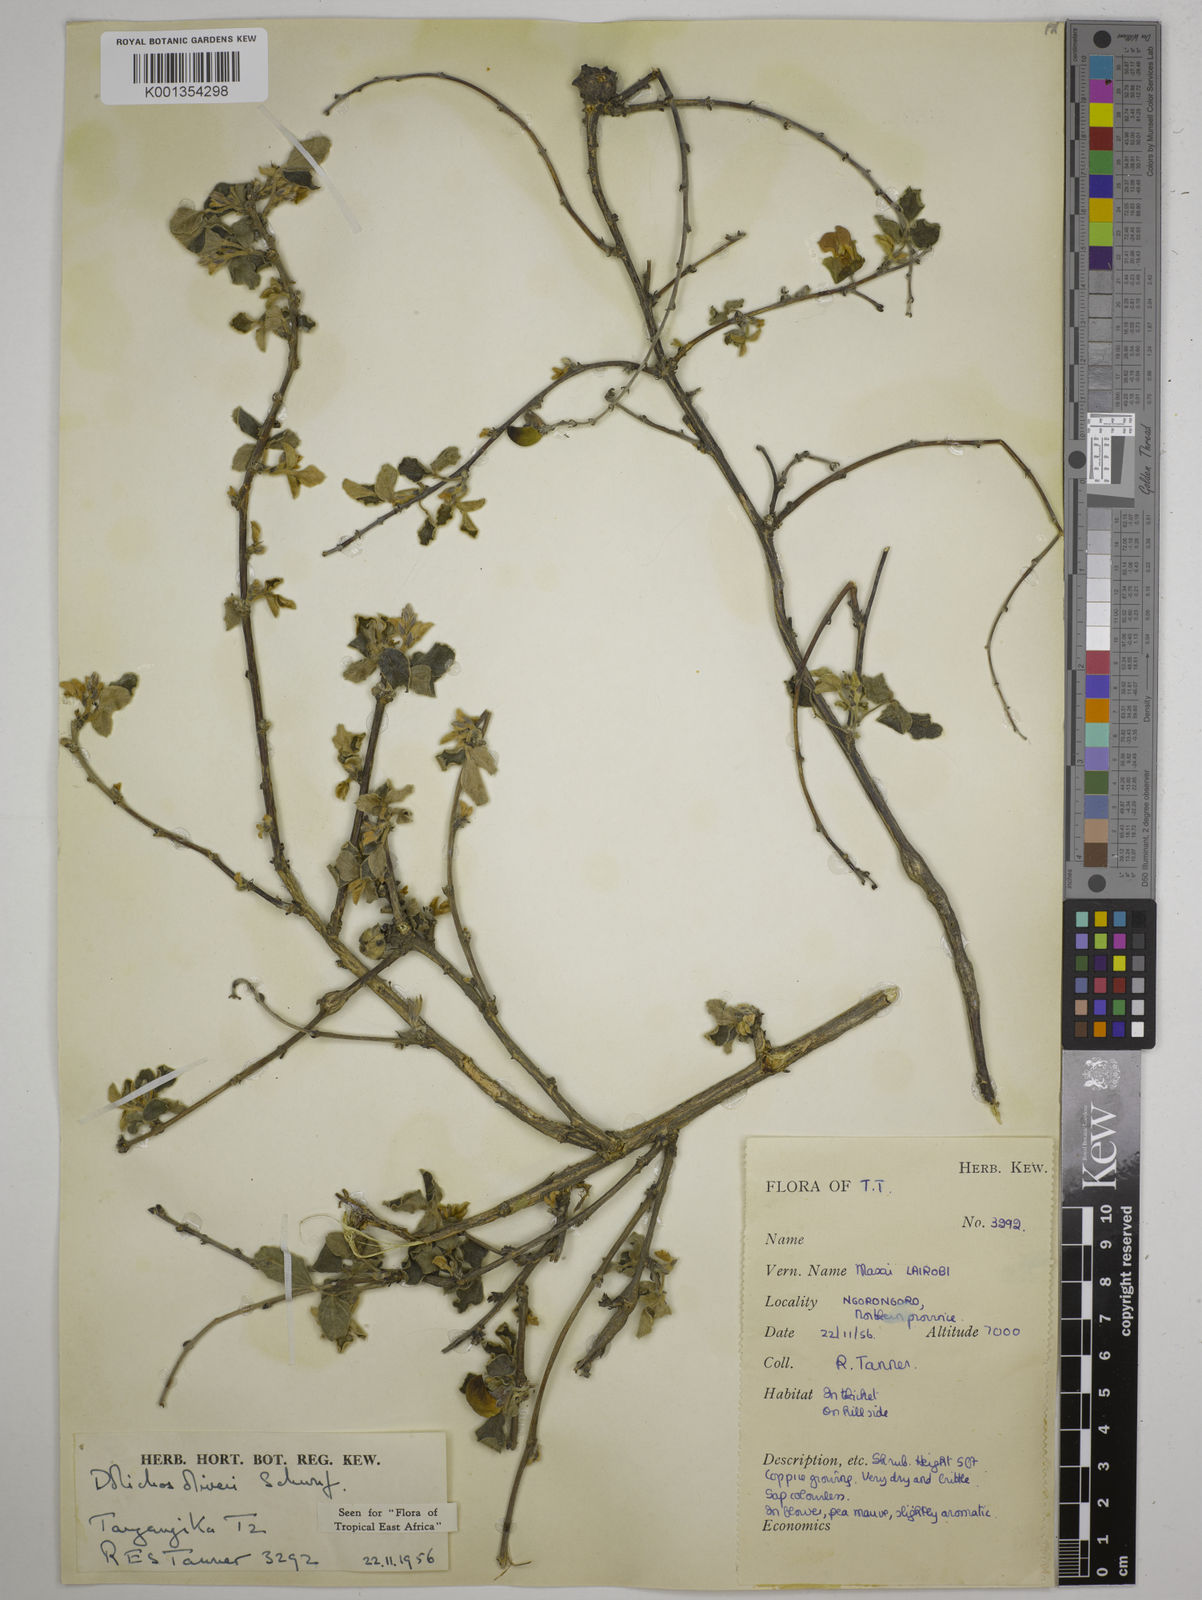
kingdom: Plantae
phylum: Tracheophyta
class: Magnoliopsida
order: Fabales
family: Fabaceae
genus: Dolichos
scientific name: Dolichos oliveri
